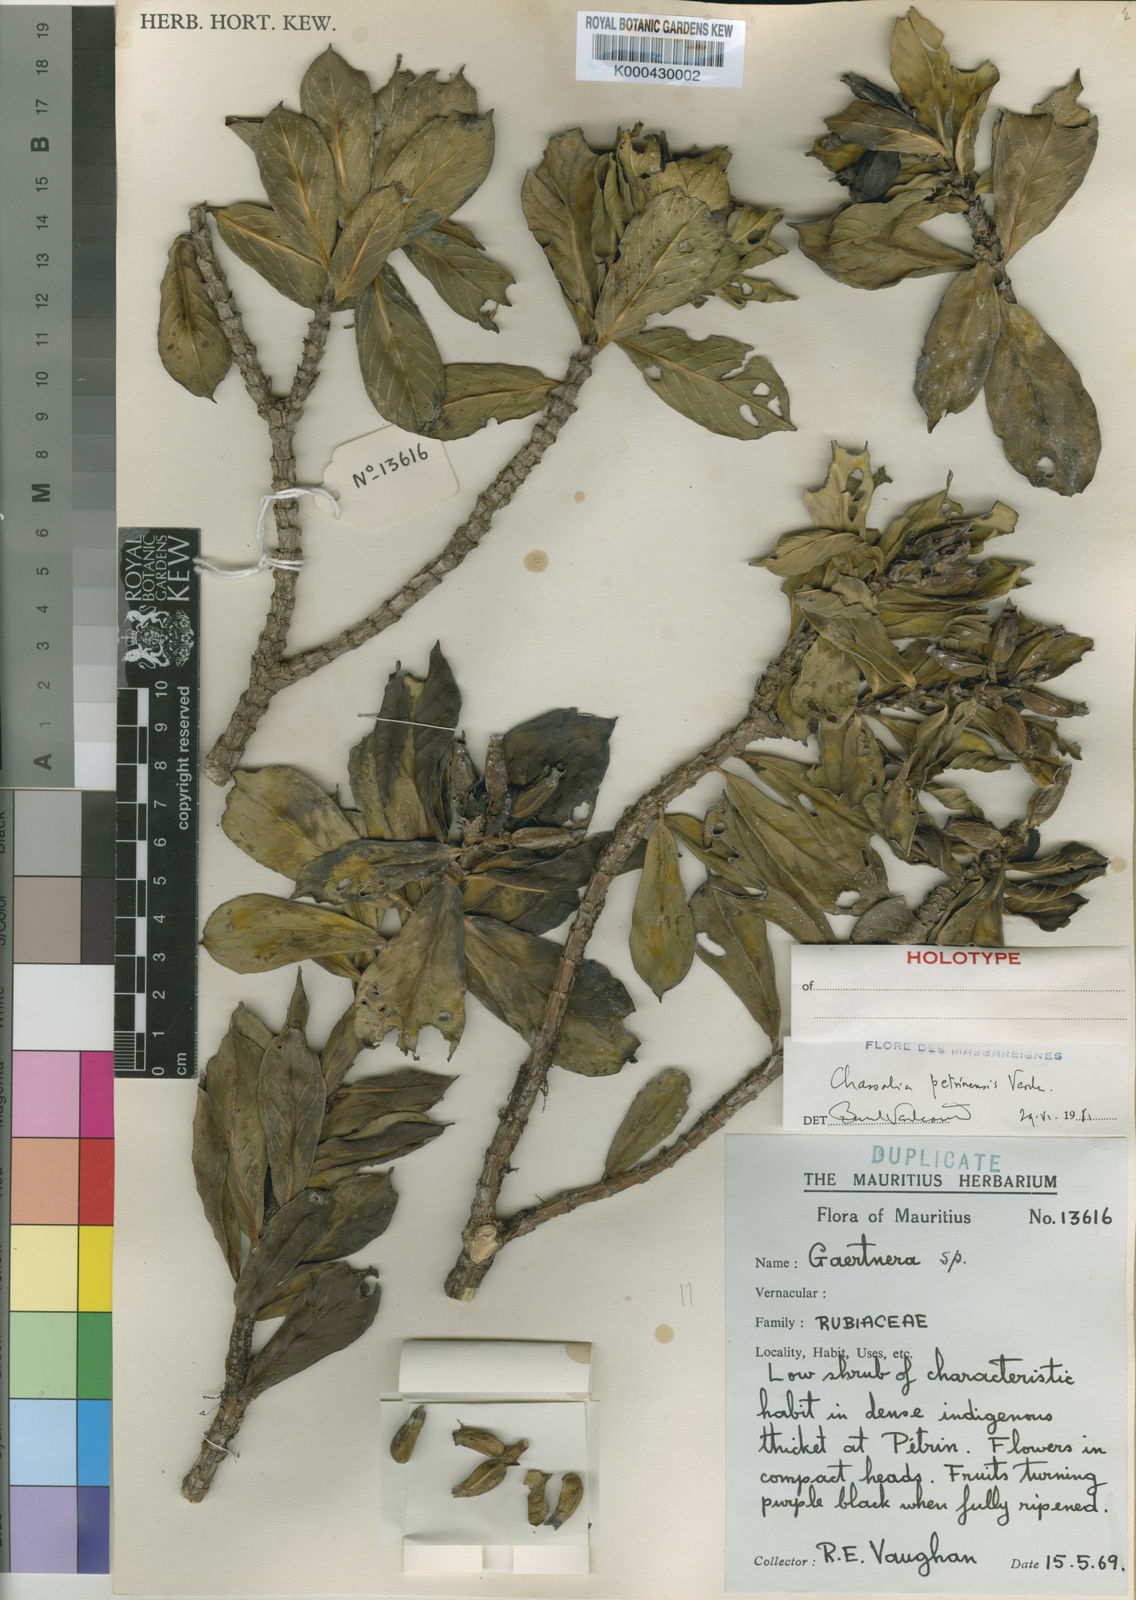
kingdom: Plantae
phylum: Tracheophyta
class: Magnoliopsida
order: Gentianales
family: Rubiaceae
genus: Chassalia
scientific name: Chassalia petrinensis
